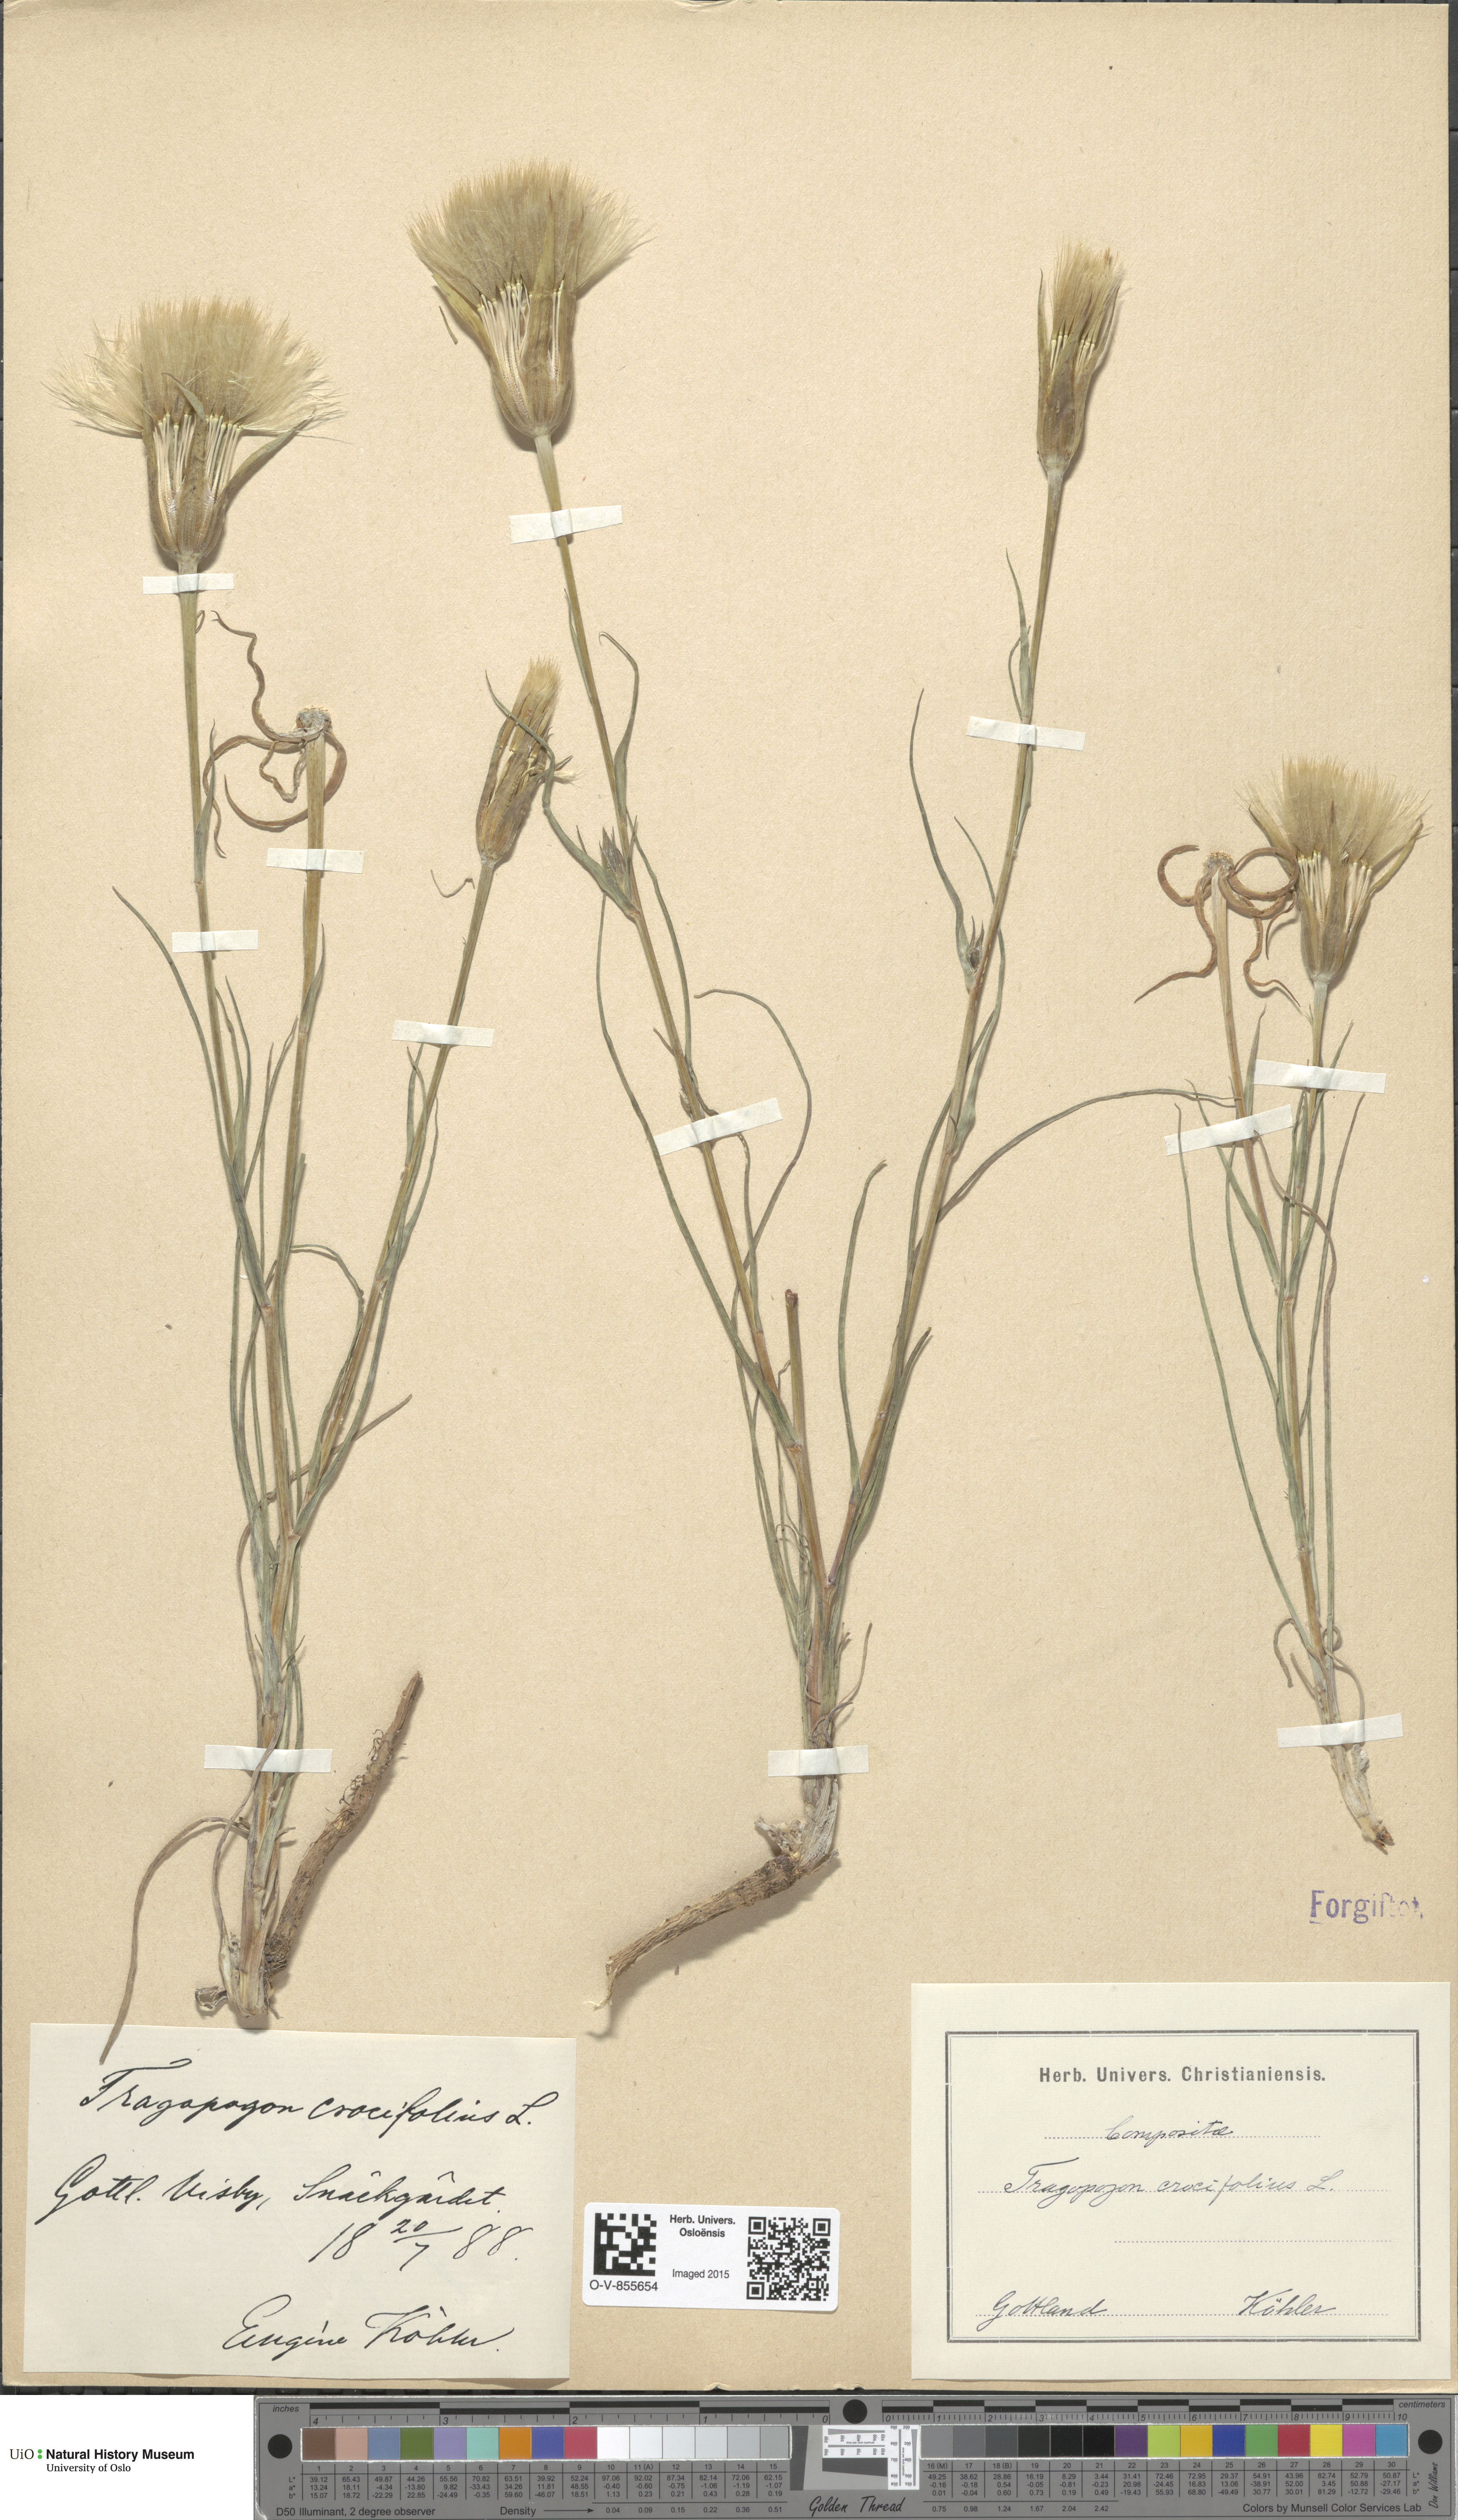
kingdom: Plantae
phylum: Tracheophyta
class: Magnoliopsida
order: Asterales
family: Asteraceae
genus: Tragopogon
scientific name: Tragopogon crocifolius
